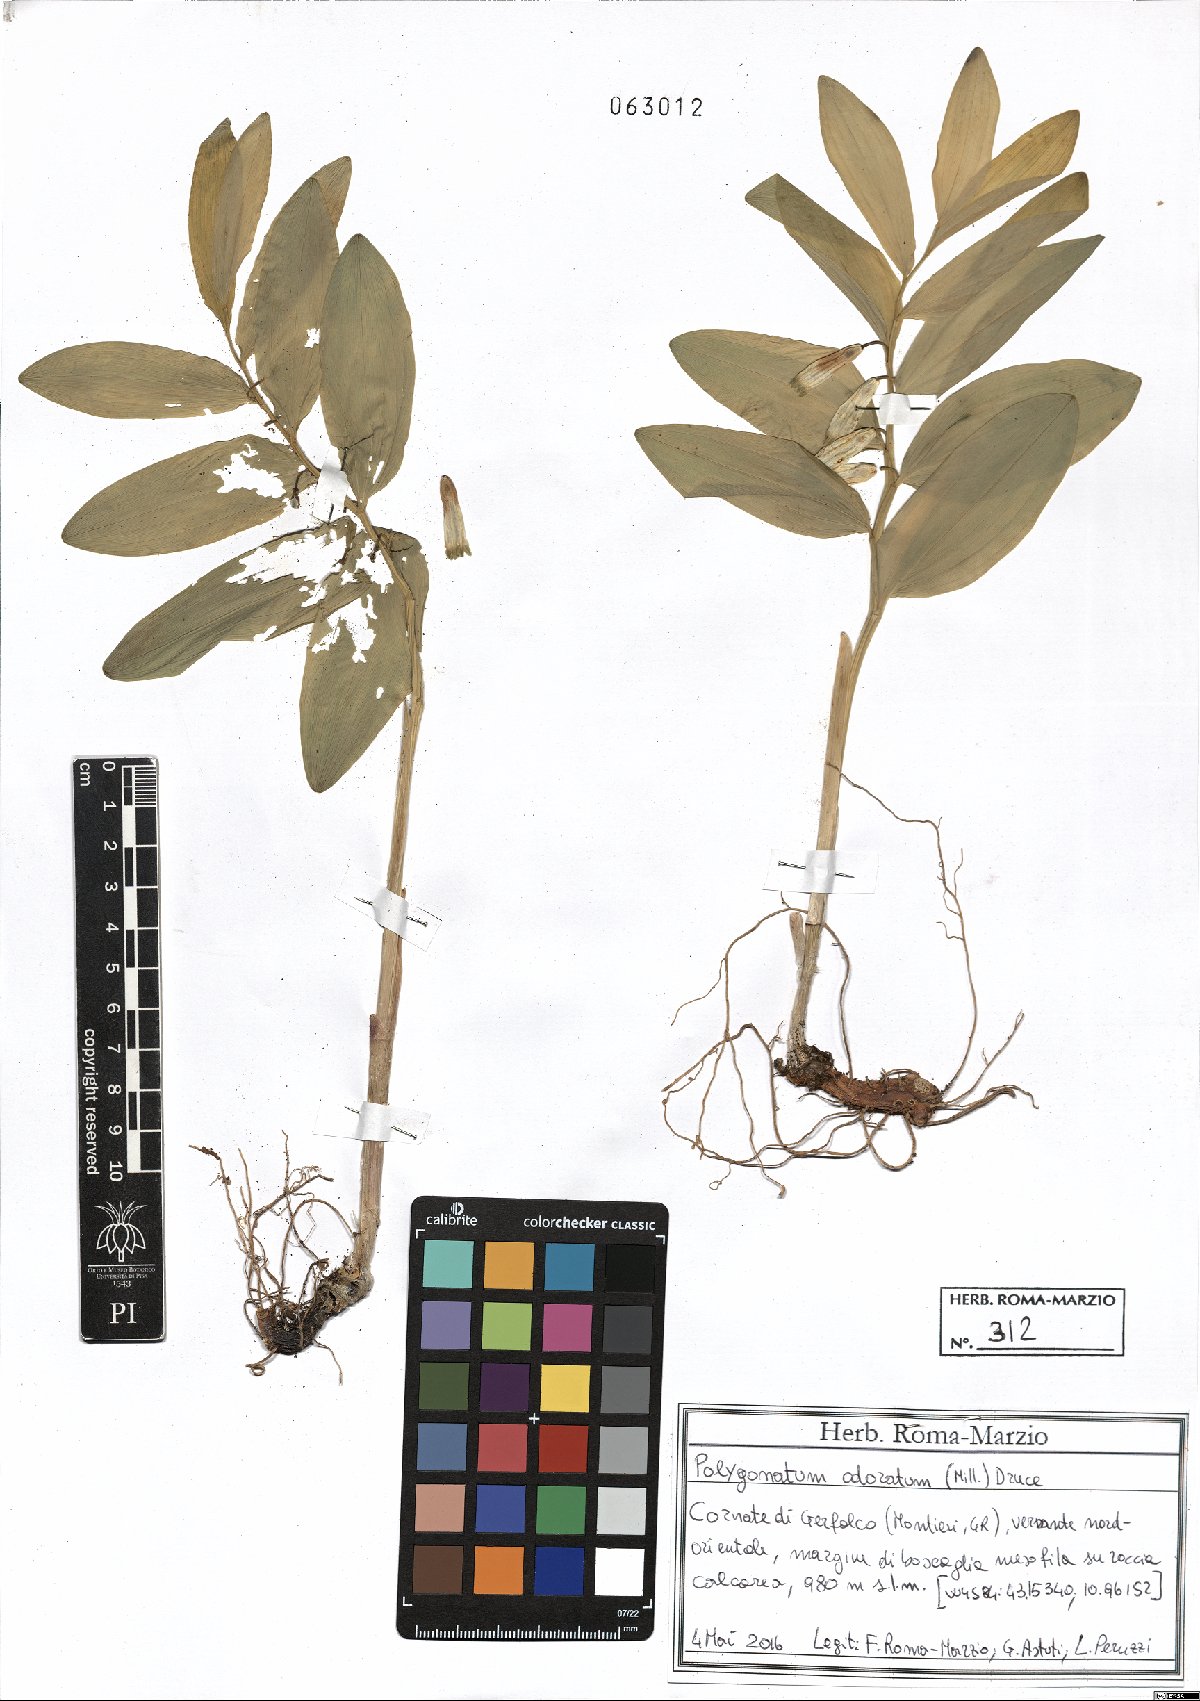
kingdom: Plantae
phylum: Tracheophyta
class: Liliopsida
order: Asparagales
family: Asparagaceae
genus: Polygonatum
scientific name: Polygonatum odoratum
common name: Angular solomon's-seal
